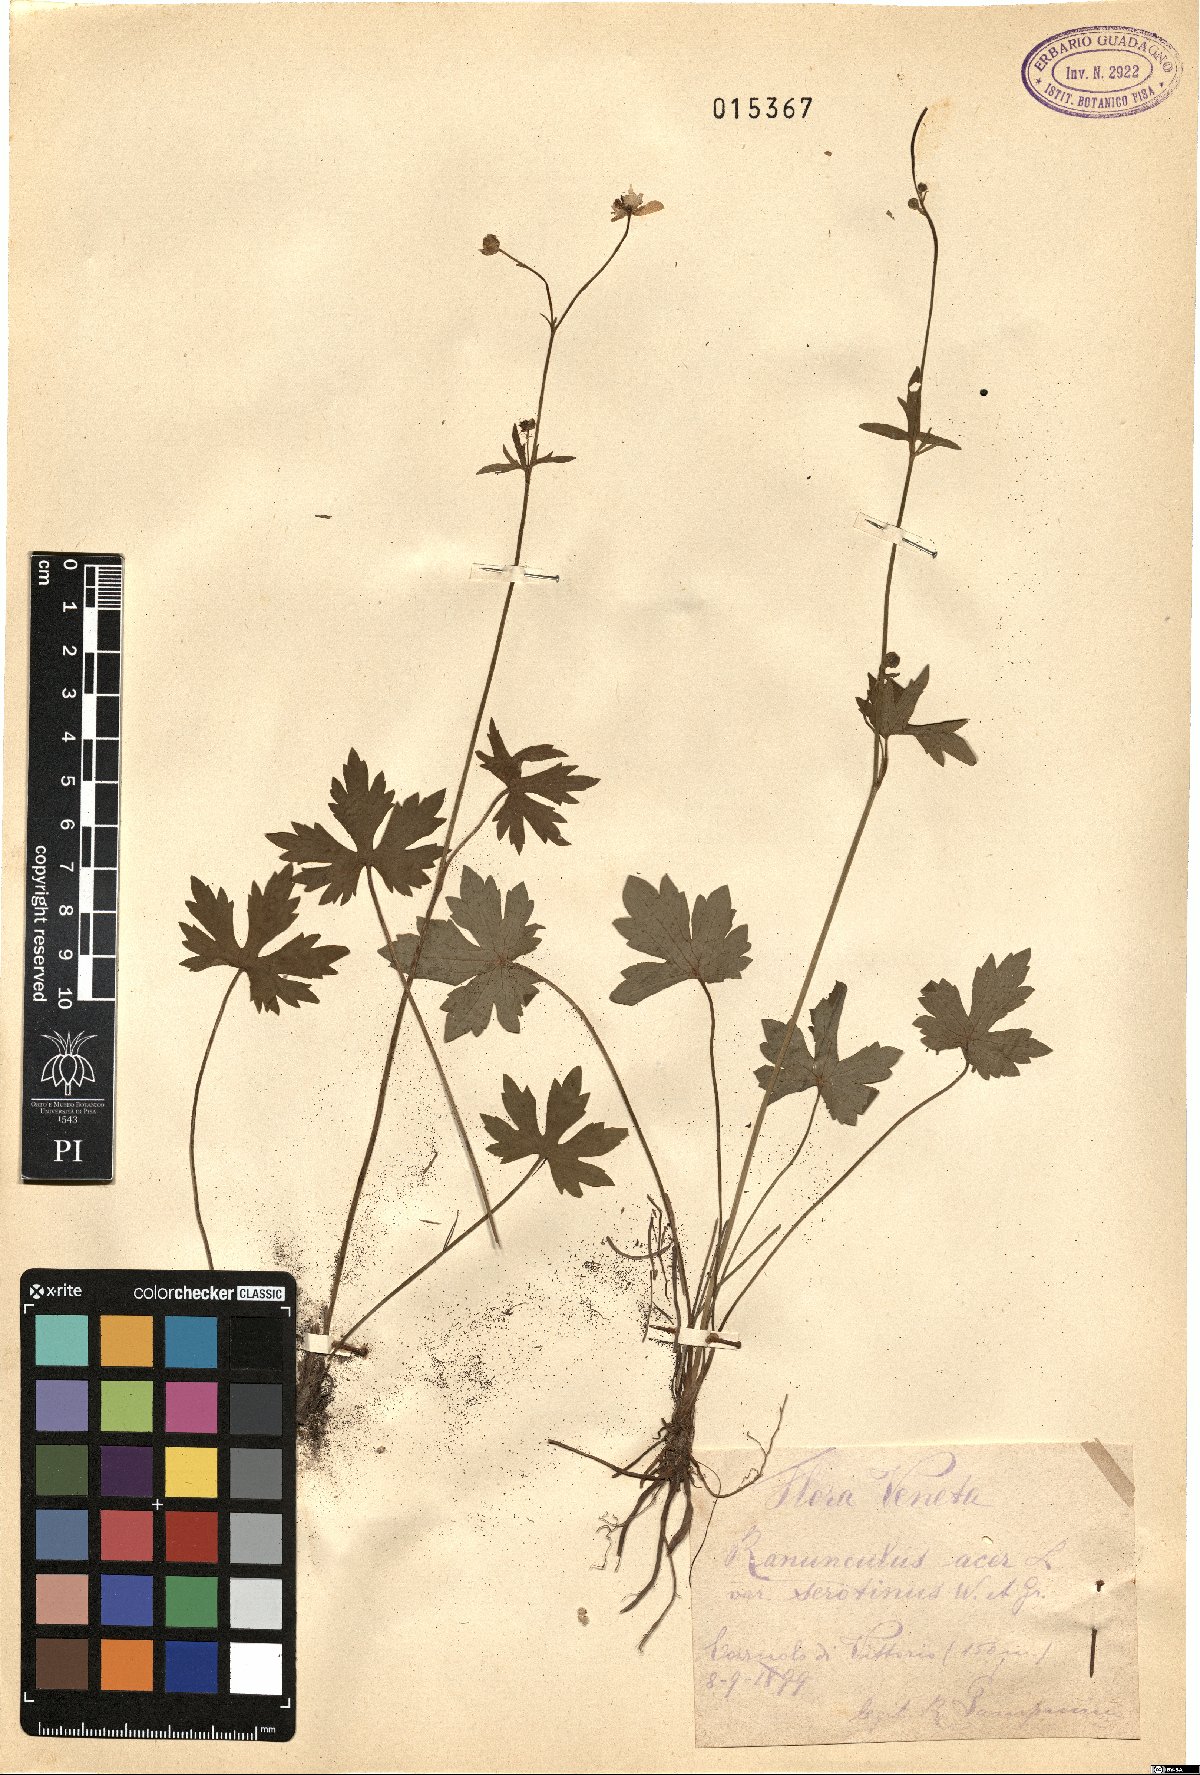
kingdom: Plantae
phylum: Tracheophyta
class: Magnoliopsida
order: Ranunculales
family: Ranunculaceae
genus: Ranunculus
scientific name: Ranunculus acris
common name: Meadow buttercup
